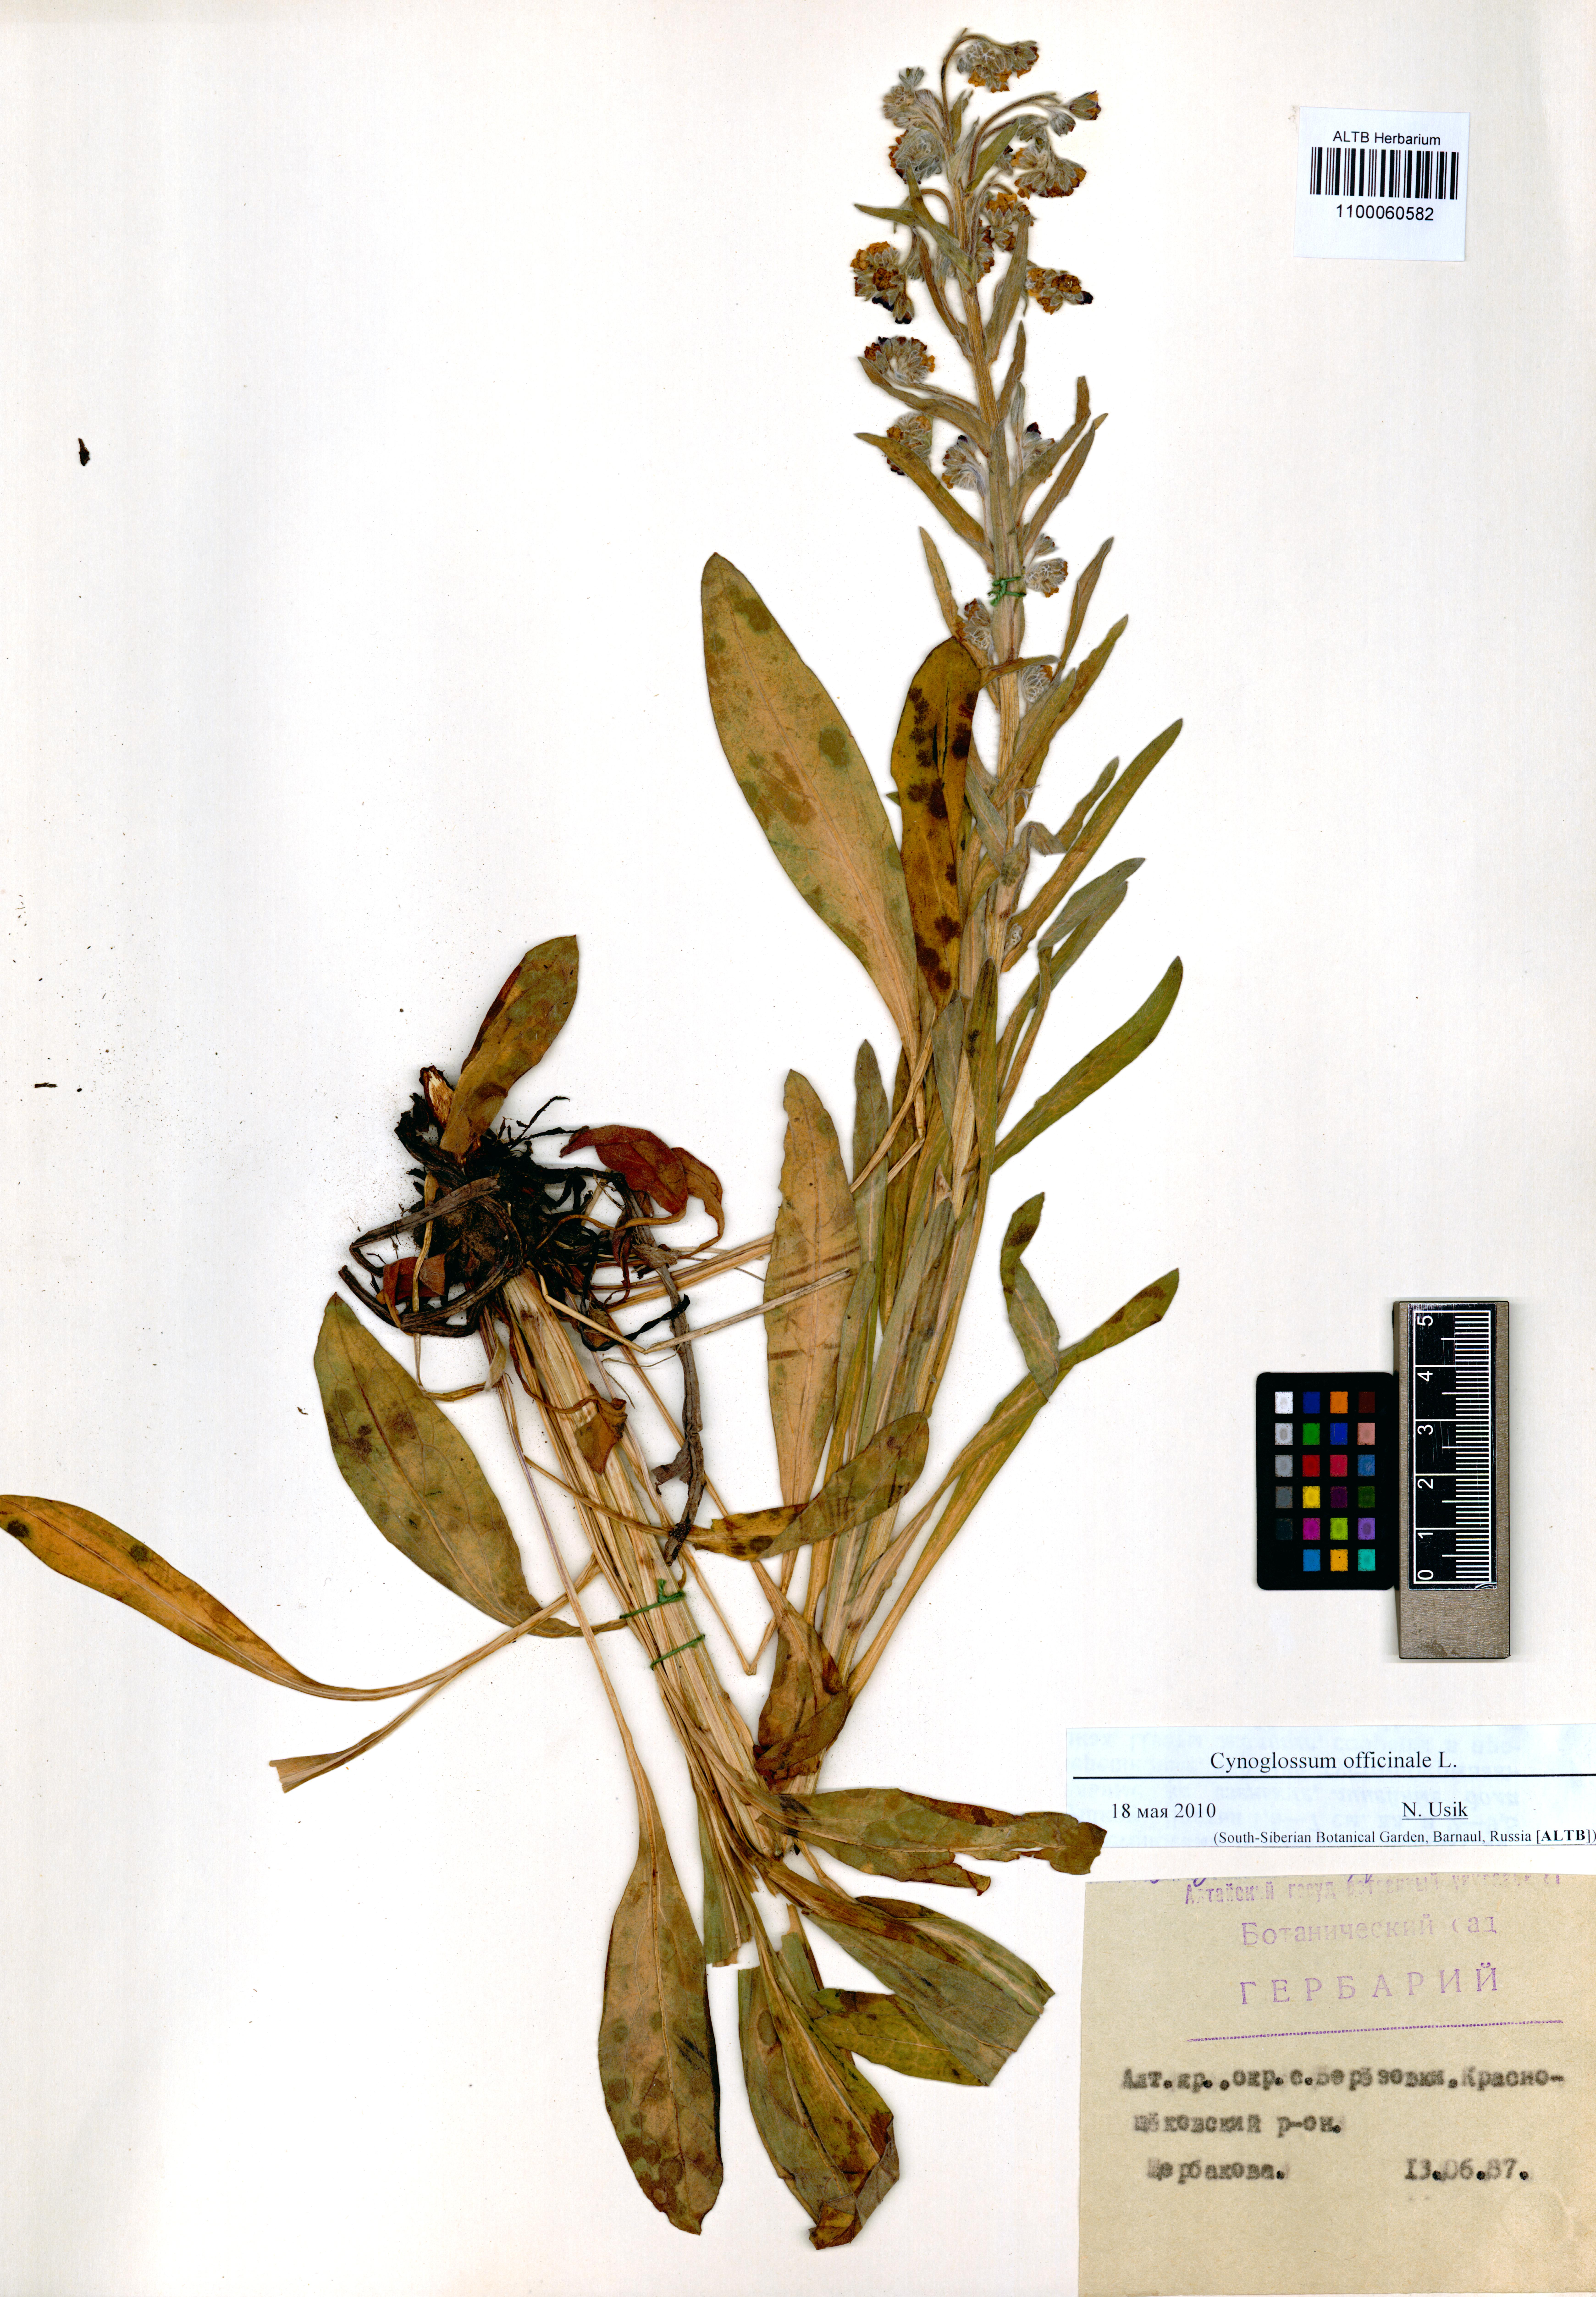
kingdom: Plantae
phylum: Tracheophyta
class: Magnoliopsida
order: Boraginales
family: Boraginaceae
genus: Cynoglossum
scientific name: Cynoglossum officinale
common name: Hound's-tongue
